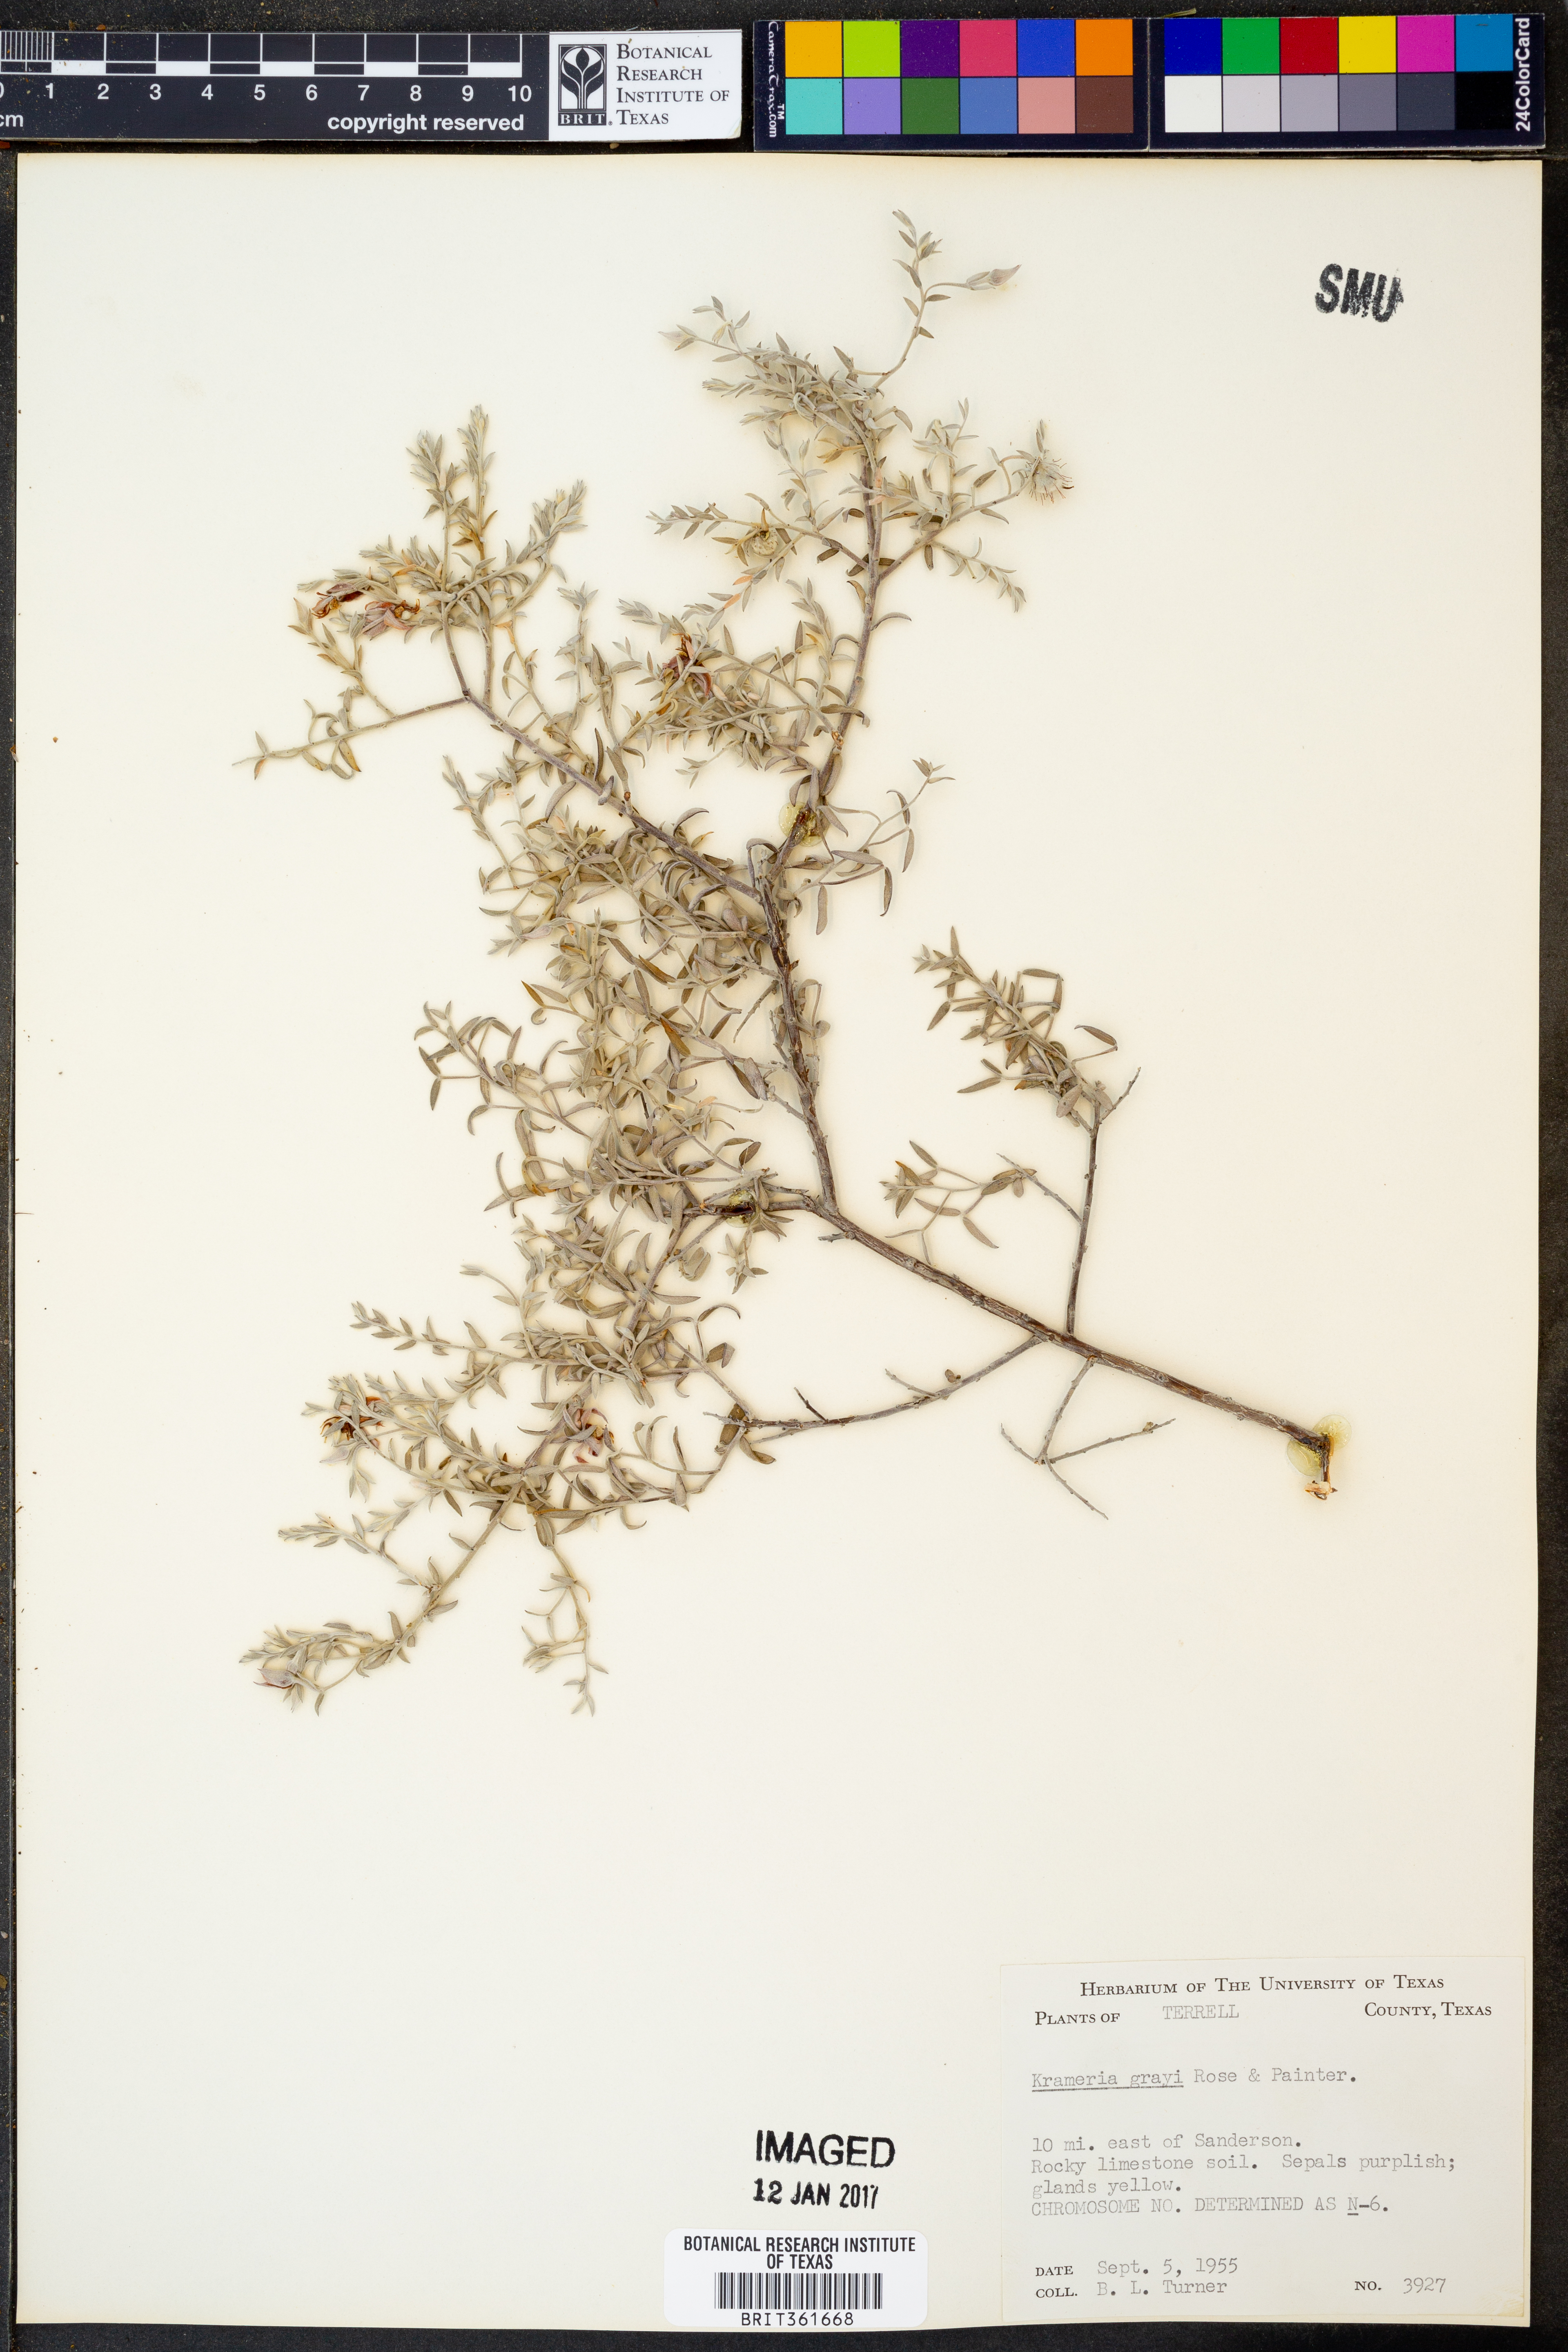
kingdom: Plantae
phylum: Tracheophyta
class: Magnoliopsida
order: Zygophyllales
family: Krameriaceae
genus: Krameria
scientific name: Krameria bicolor
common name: White ratany
